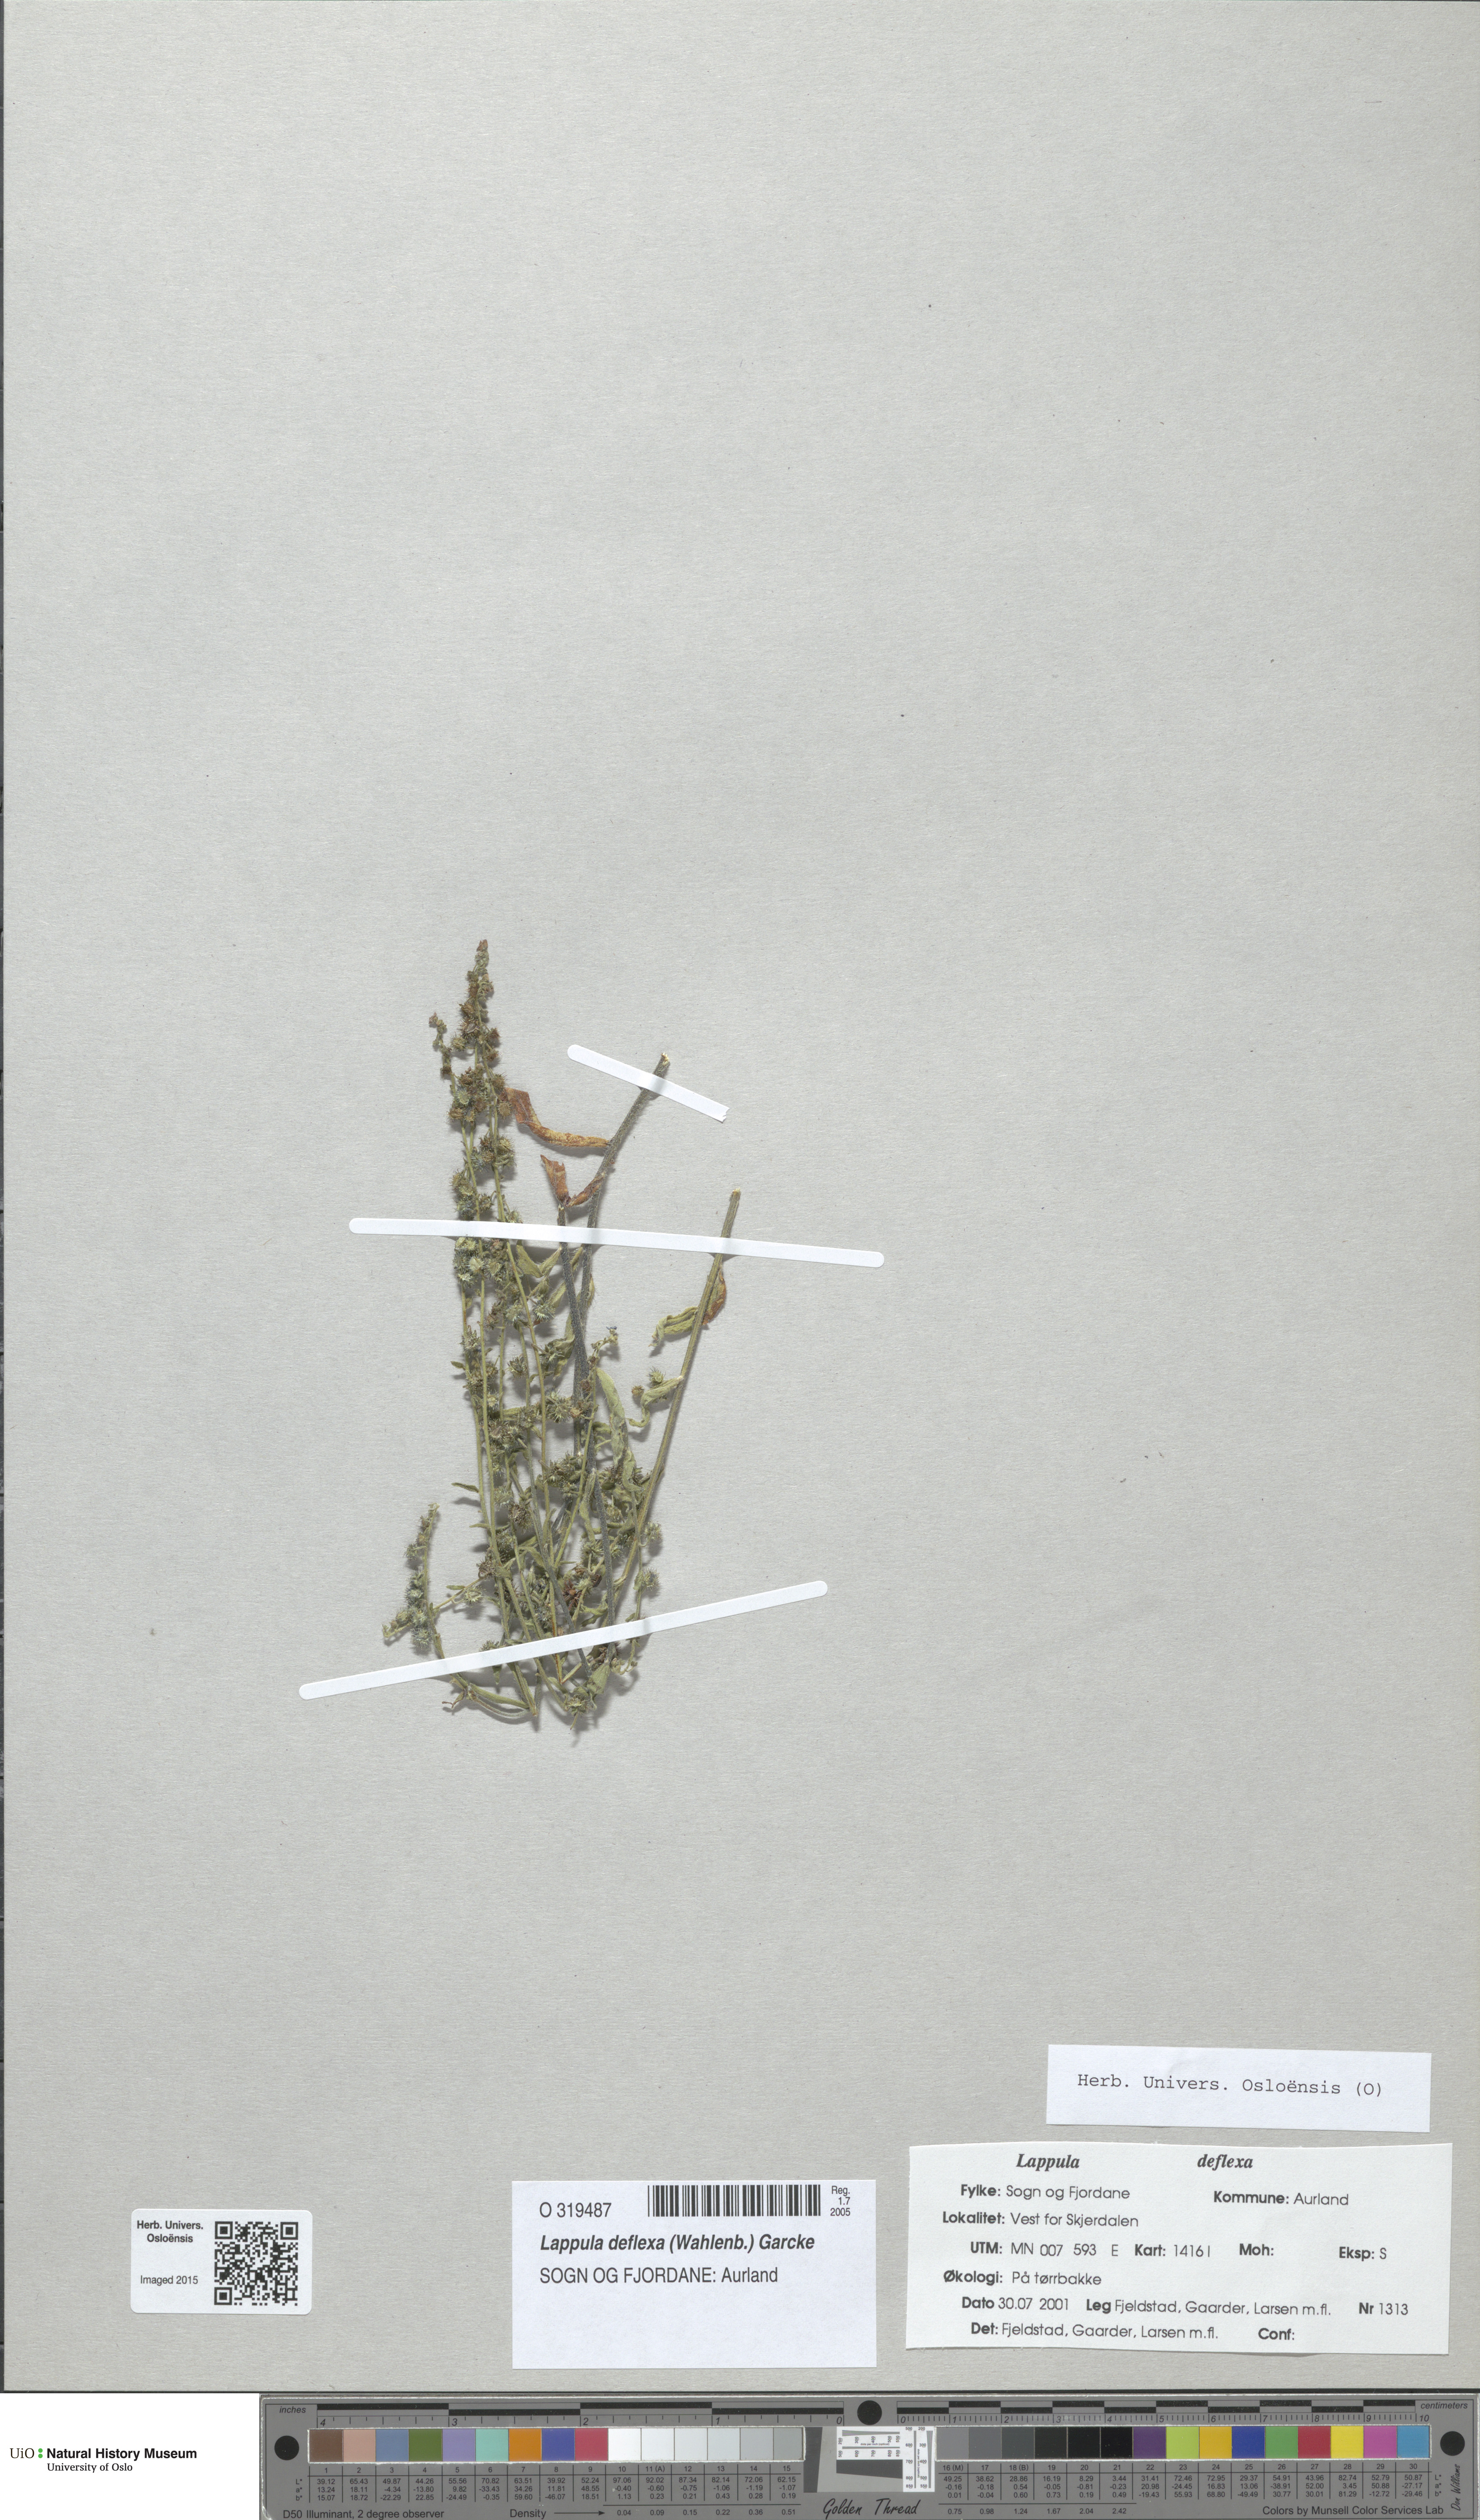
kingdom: Plantae
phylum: Tracheophyta
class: Magnoliopsida
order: Boraginales
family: Boraginaceae
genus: Hackelia
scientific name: Hackelia deflexa
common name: Nodding stickseed
